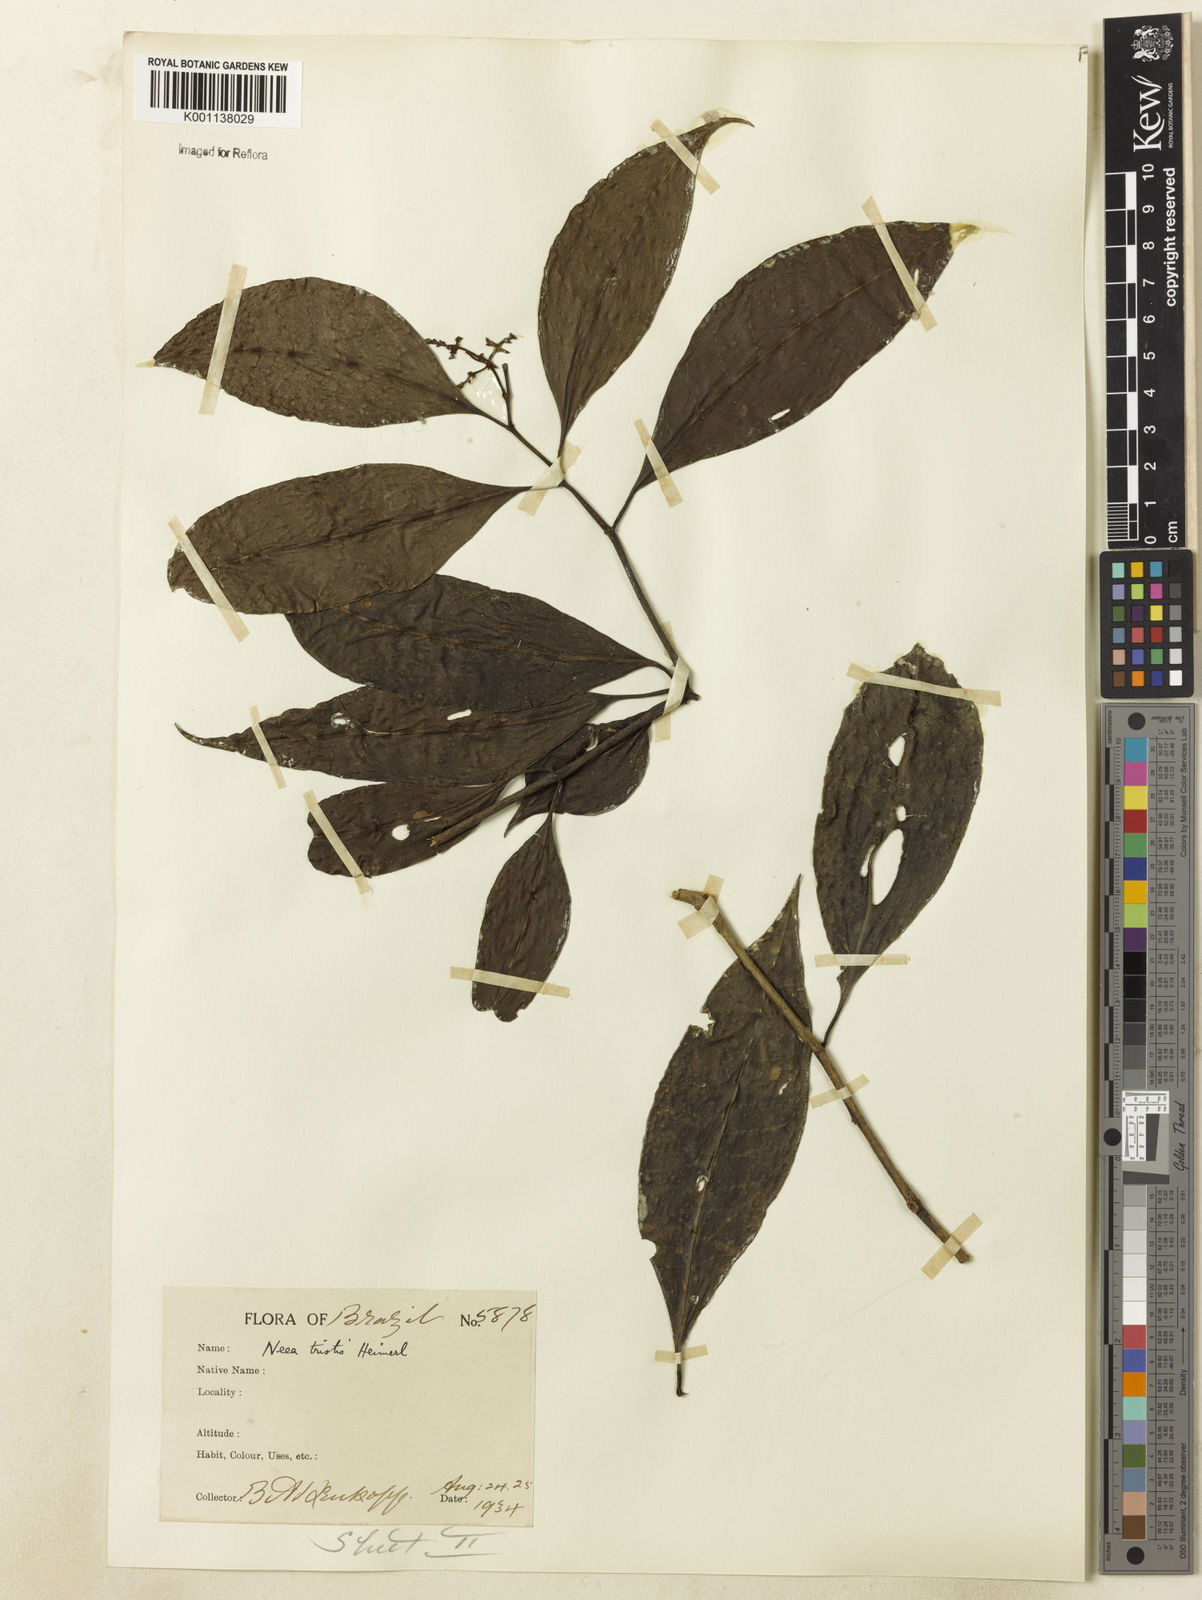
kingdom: Plantae
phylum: Tracheophyta
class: Magnoliopsida
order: Caryophyllales
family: Nyctaginaceae
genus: Neea
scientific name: Neea tristis
